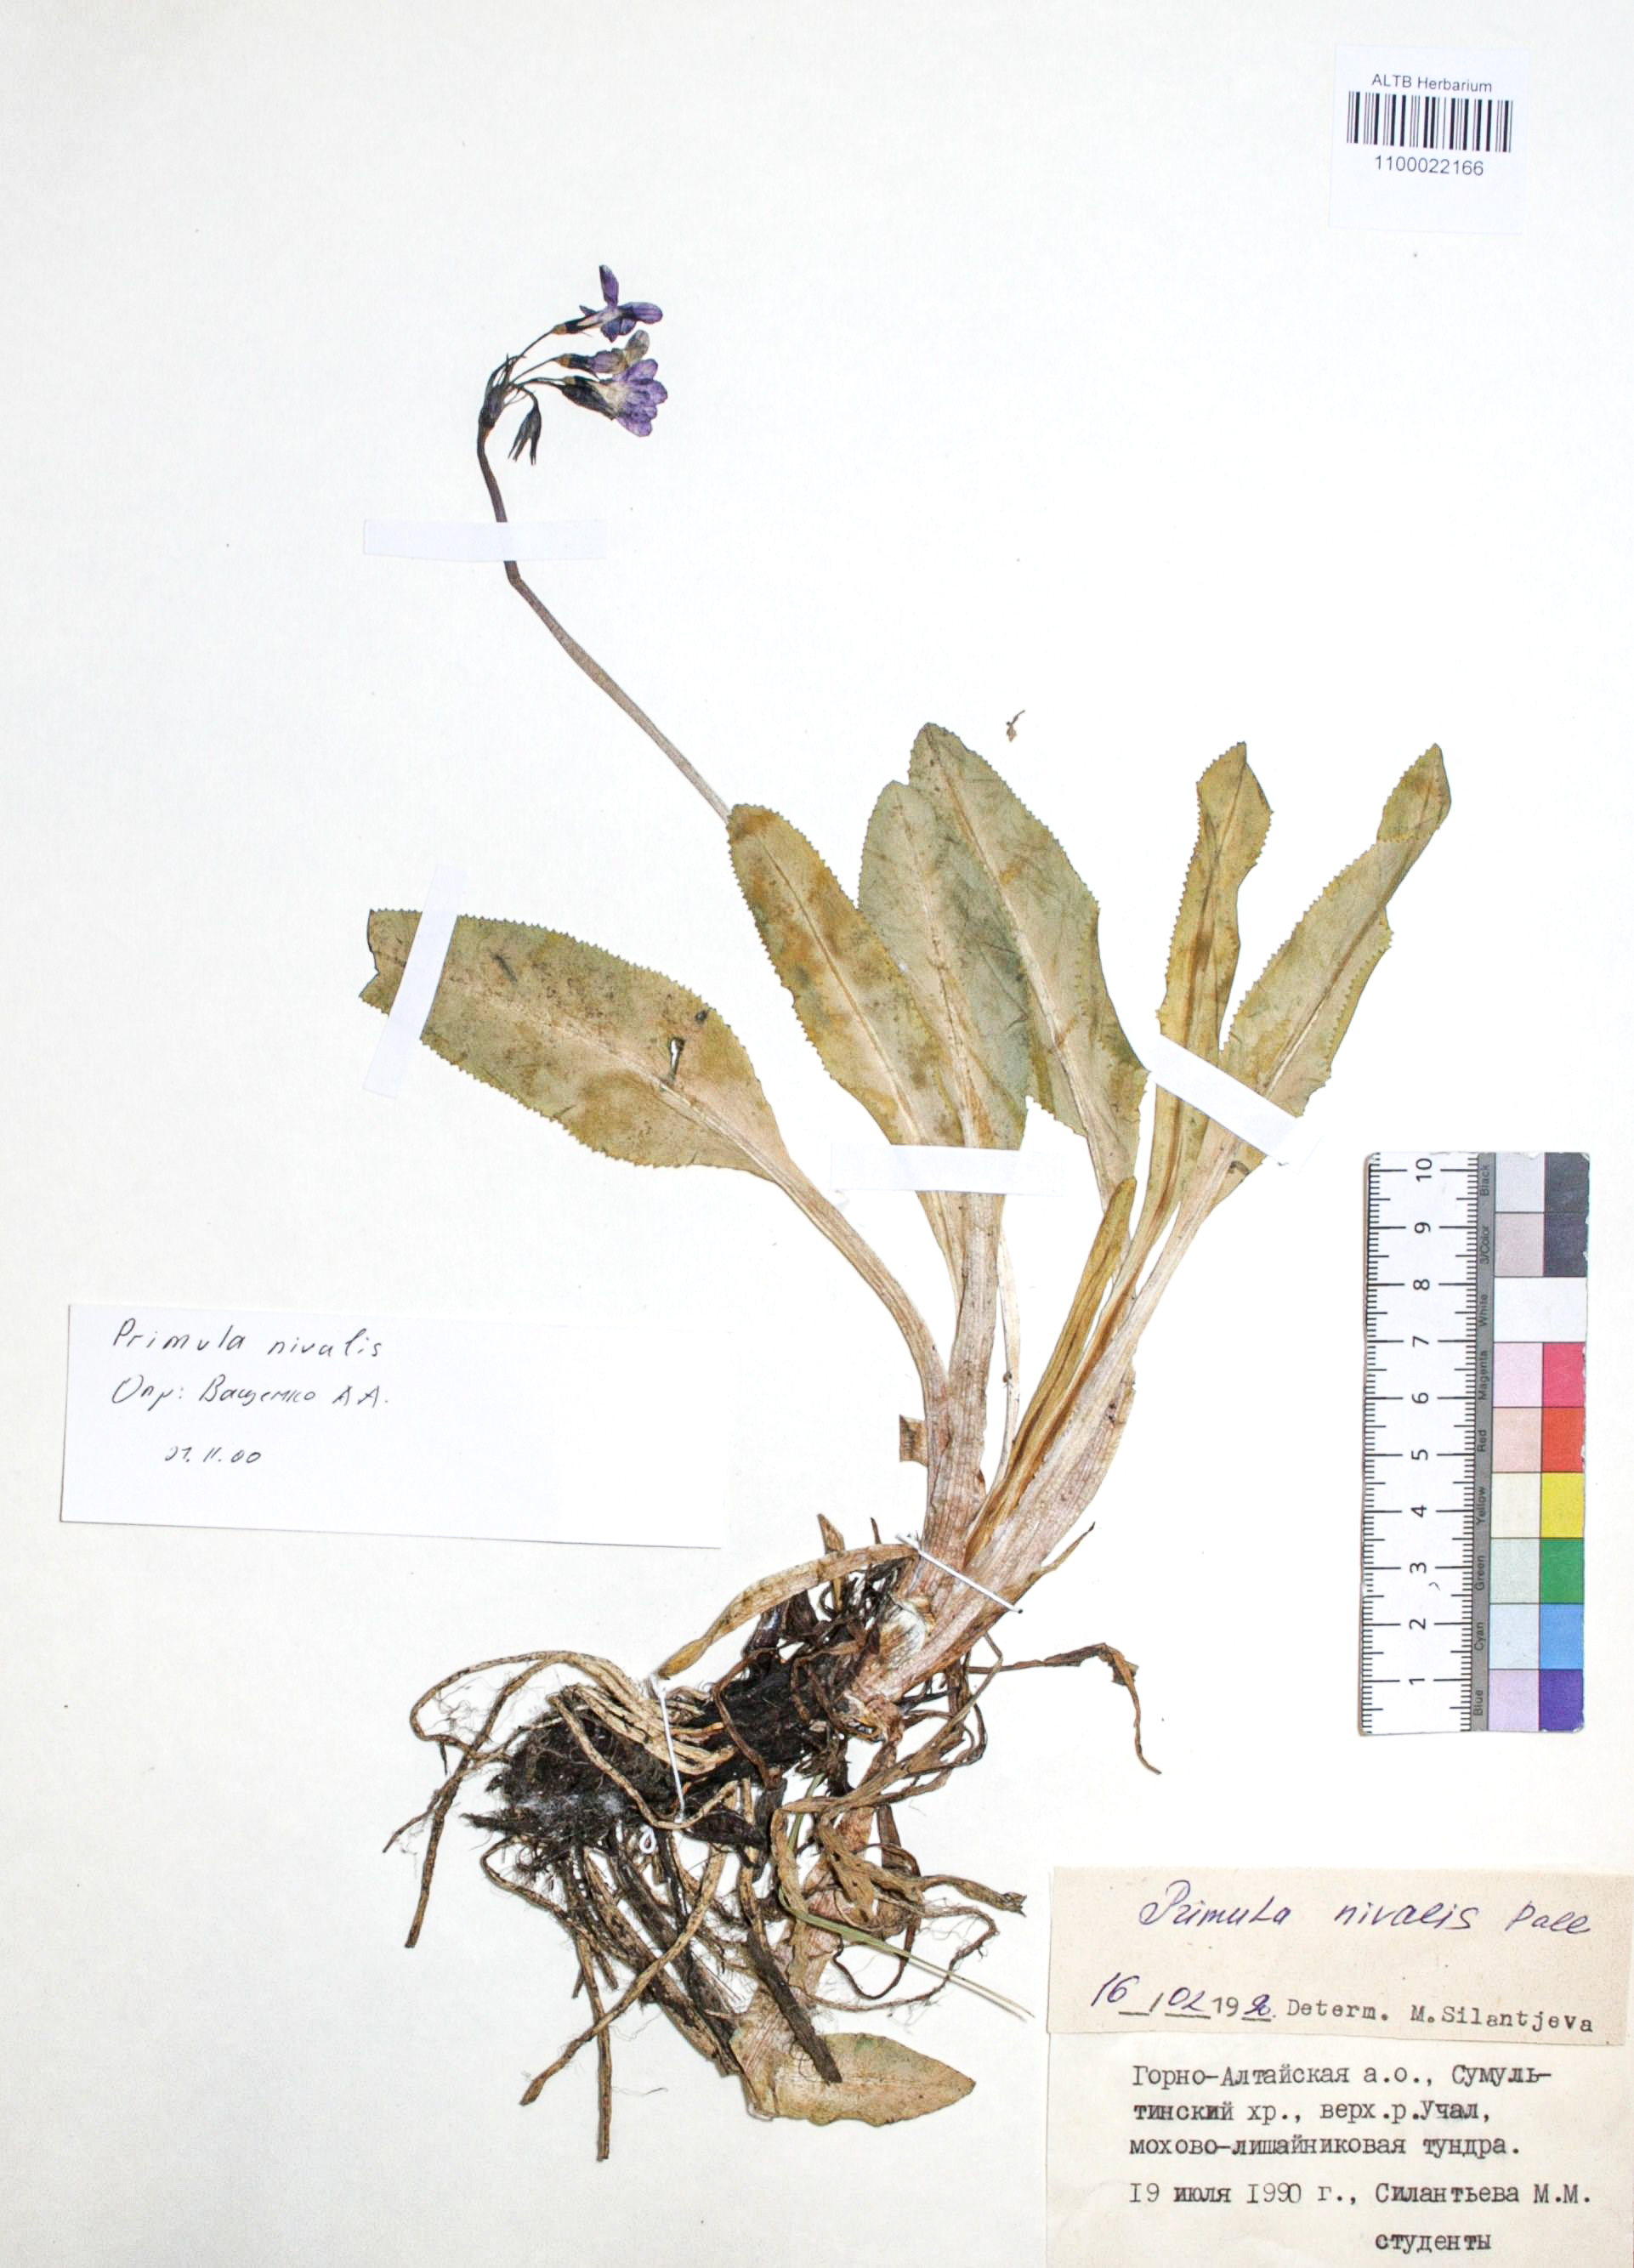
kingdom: Plantae
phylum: Tracheophyta
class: Magnoliopsida
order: Ericales
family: Primulaceae
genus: Primula
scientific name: Primula nivalis
